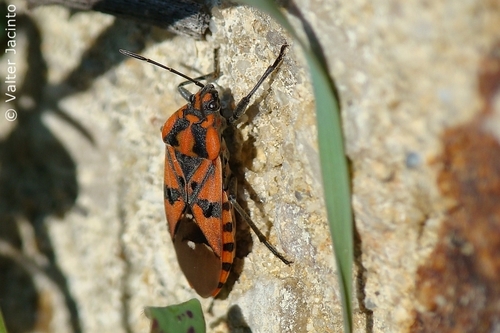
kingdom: Animalia
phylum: Arthropoda
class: Insecta
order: Hemiptera
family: Lygaeidae
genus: Spilostethus
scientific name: Spilostethus pandurus
